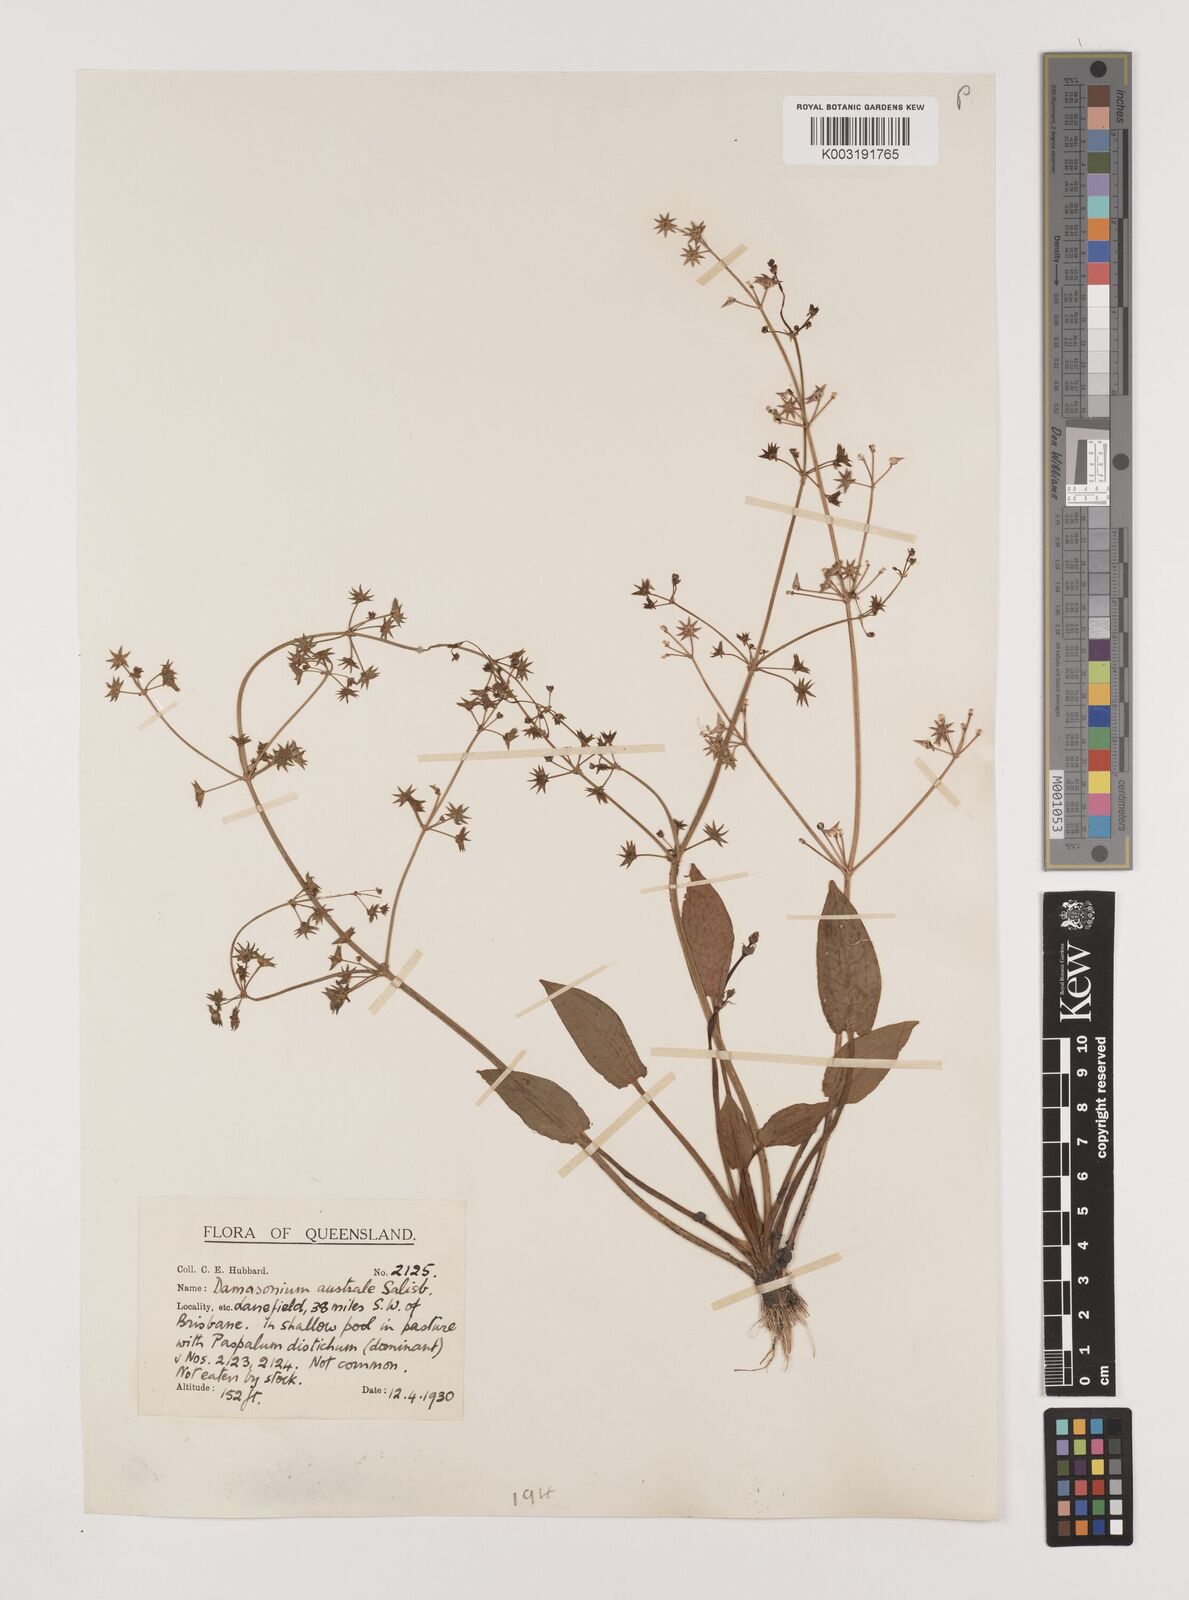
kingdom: Plantae
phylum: Tracheophyta
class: Liliopsida
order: Alismatales
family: Alismataceae
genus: Damasonium
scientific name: Damasonium minus
